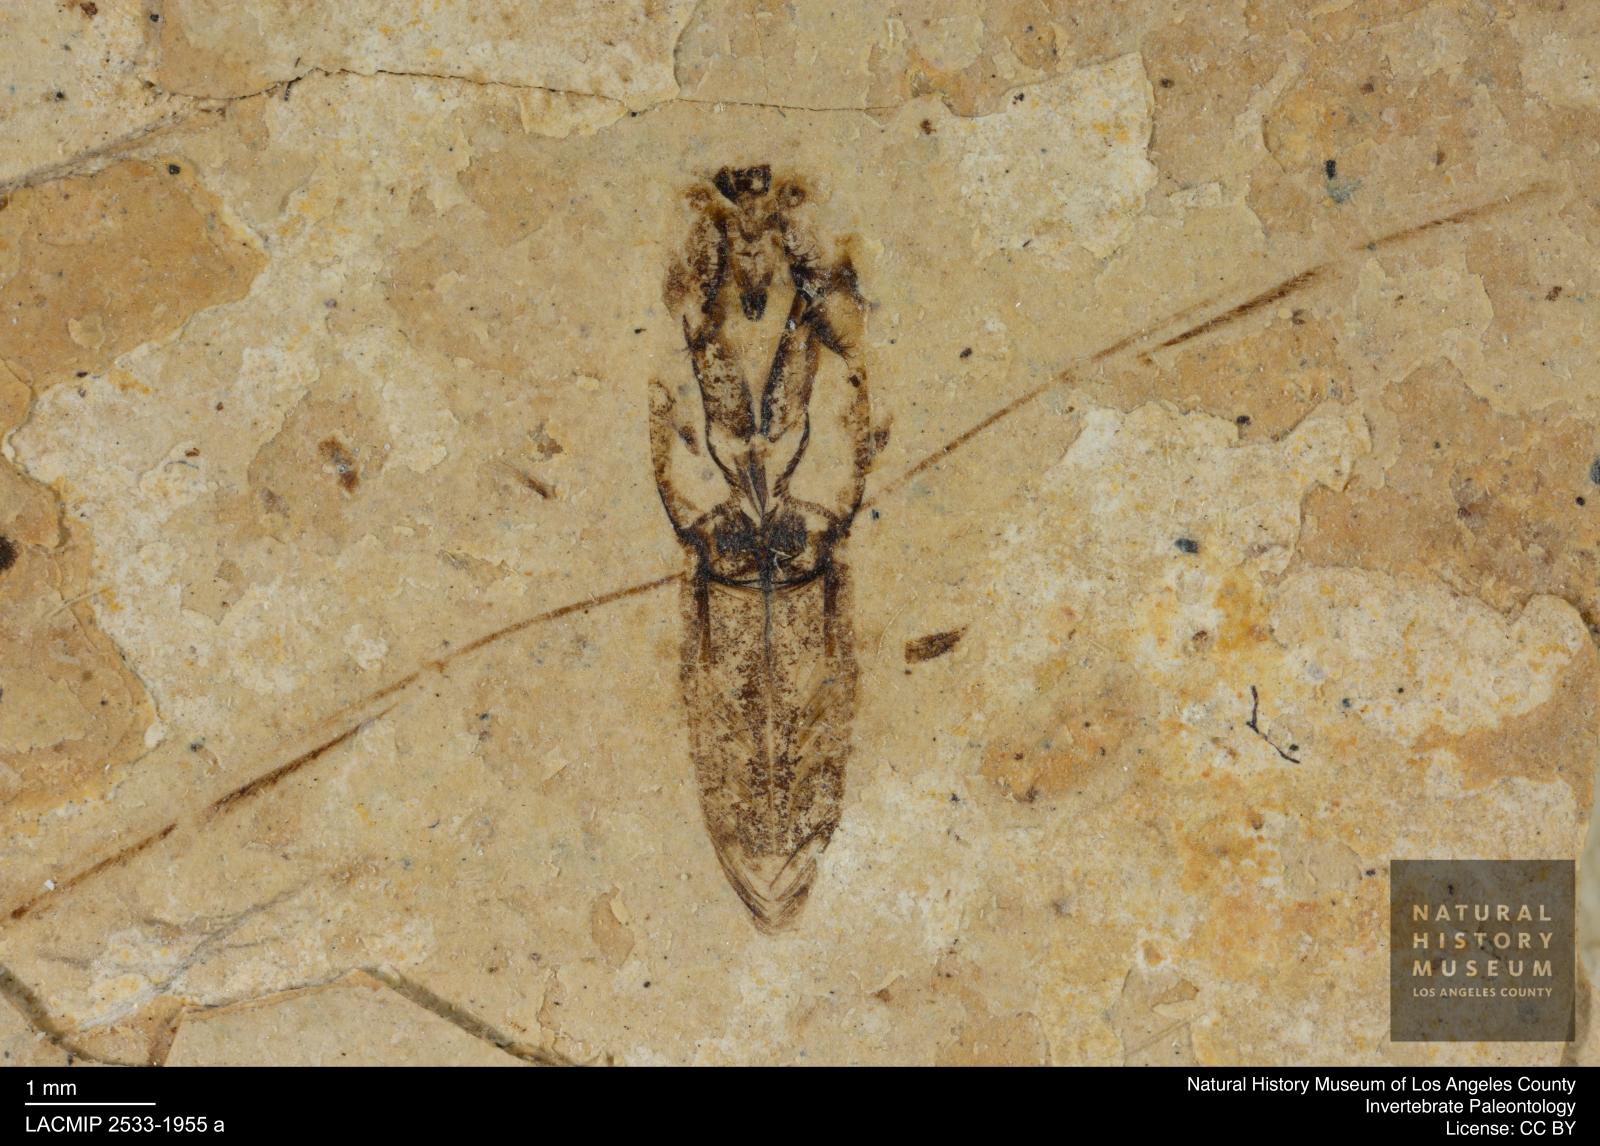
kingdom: Animalia
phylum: Arthropoda
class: Insecta
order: Hemiptera
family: Notonectidae
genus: Anisops
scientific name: Anisops Notonecta deichmuelleri
